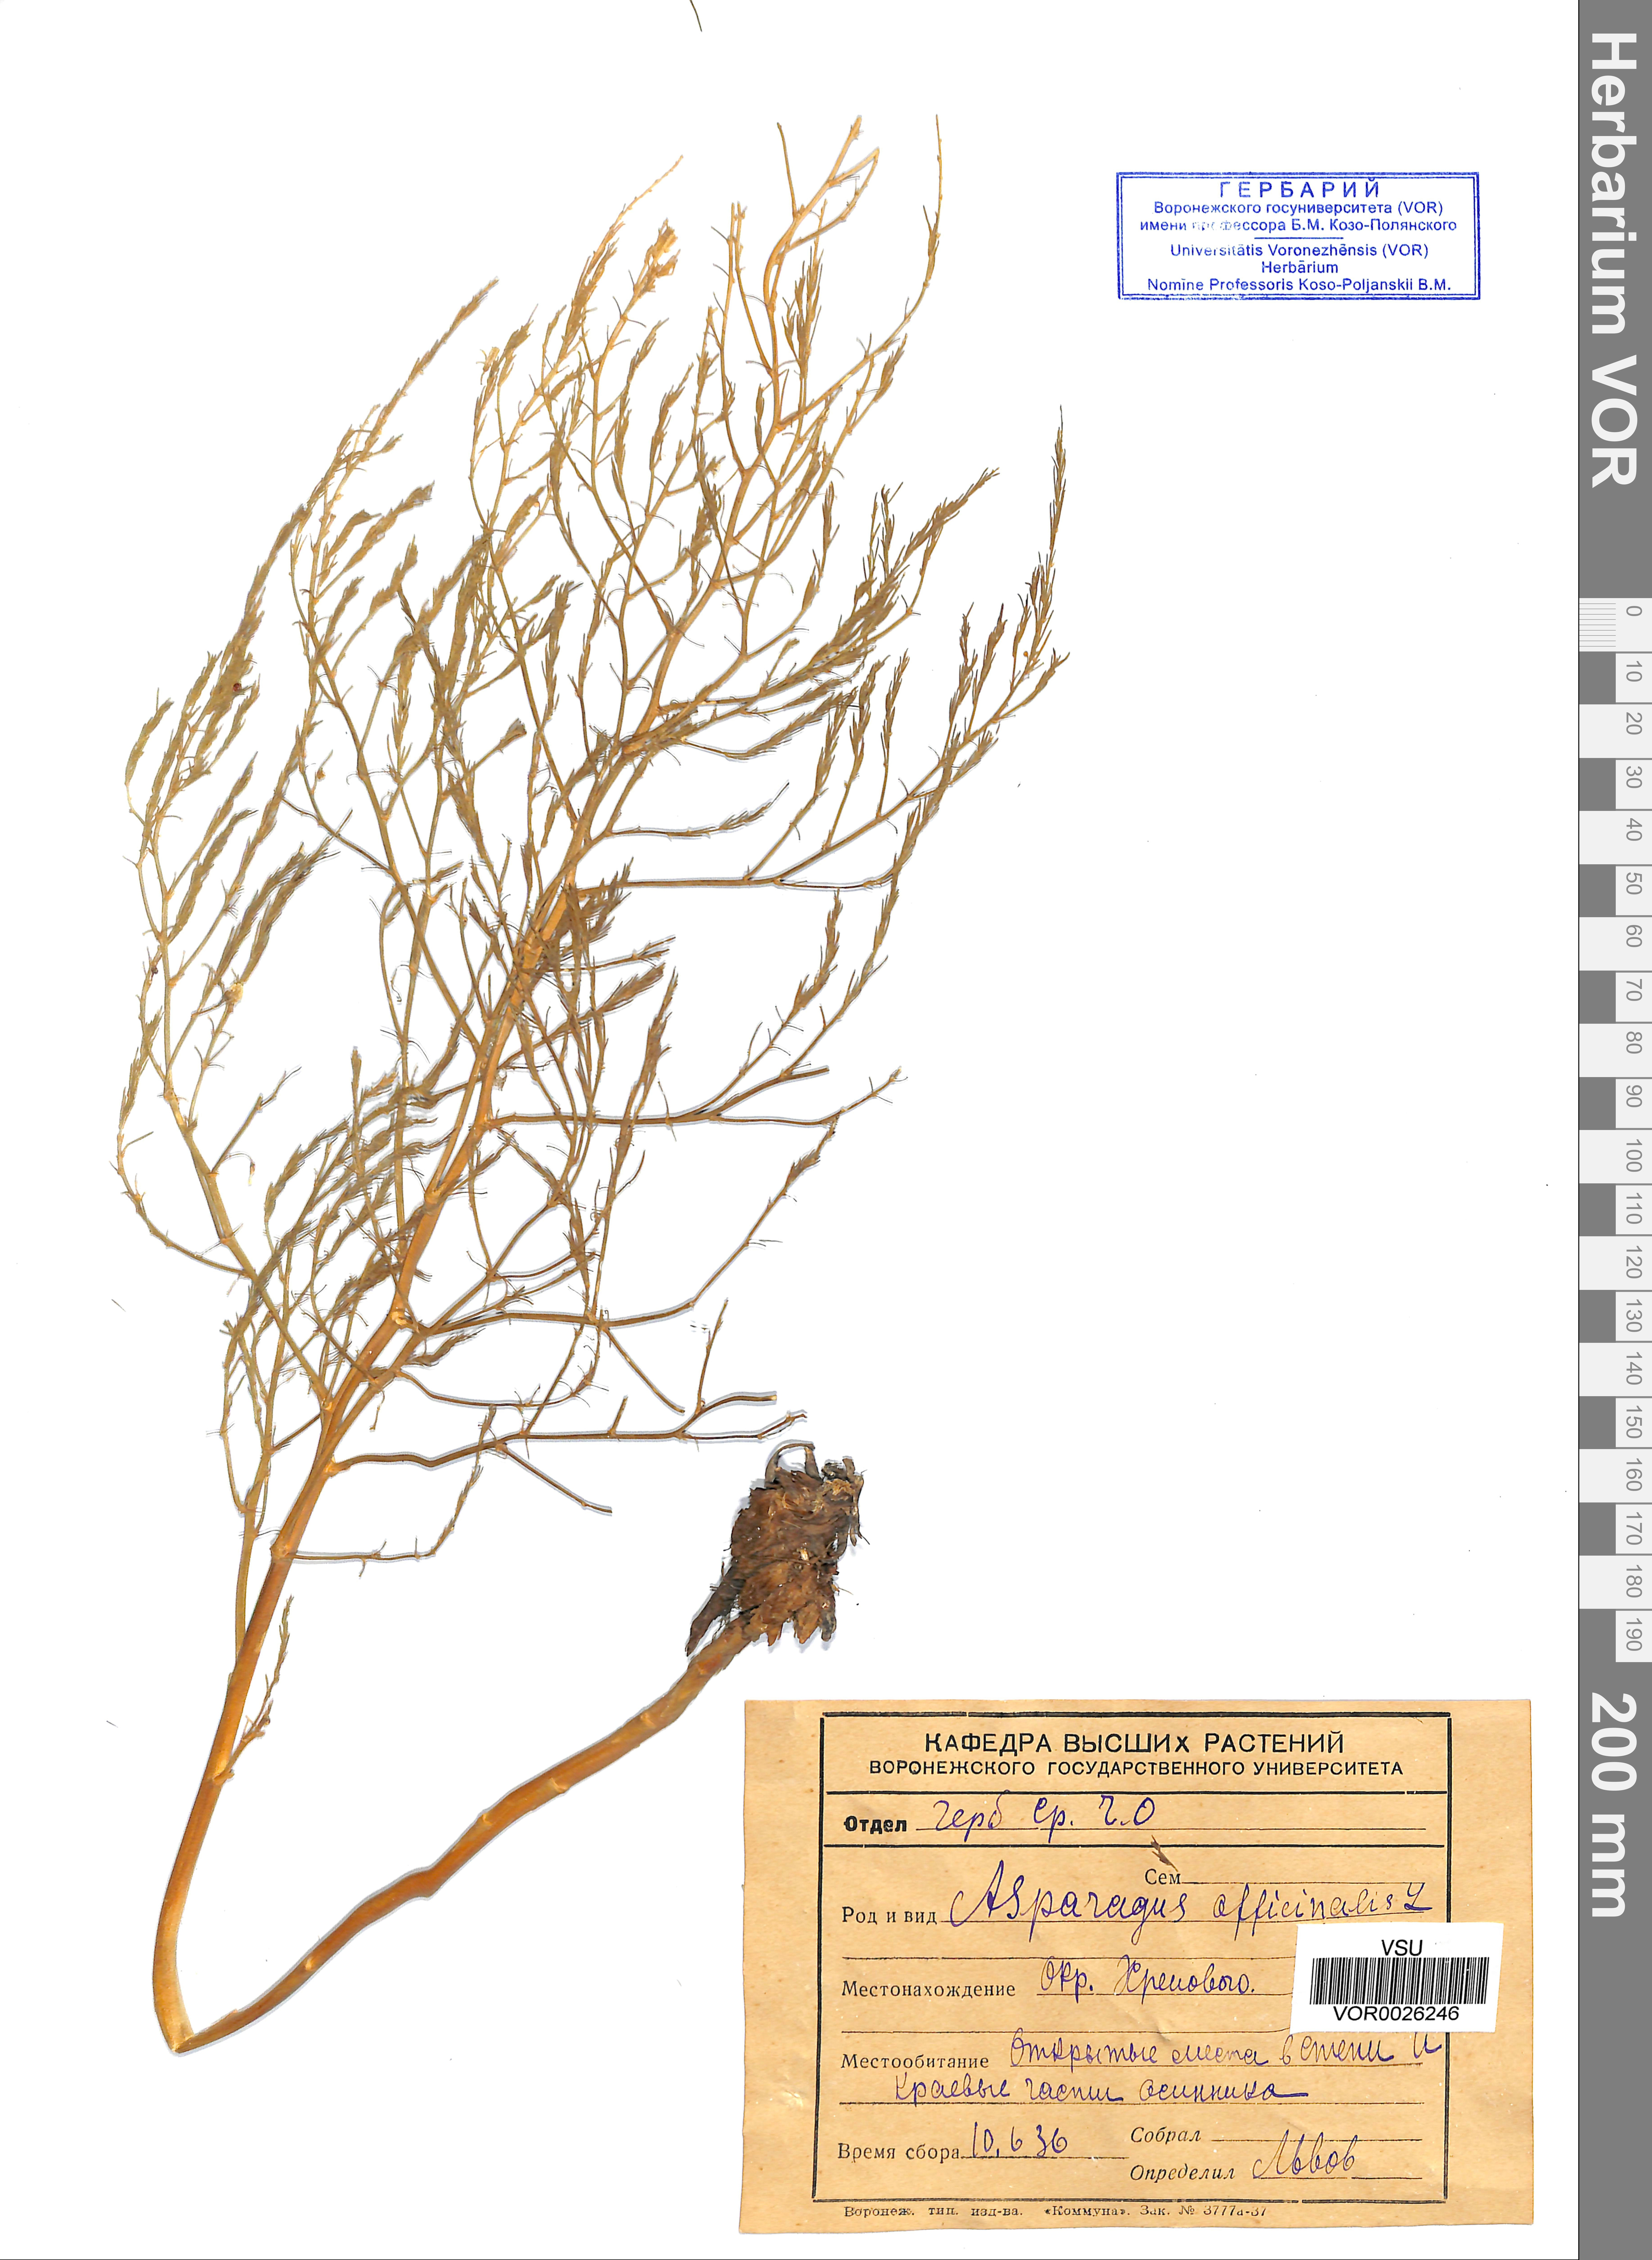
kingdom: Plantae
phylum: Tracheophyta
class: Liliopsida
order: Asparagales
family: Asparagaceae
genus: Asparagus
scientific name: Asparagus officinalis
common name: Garden asparagus
